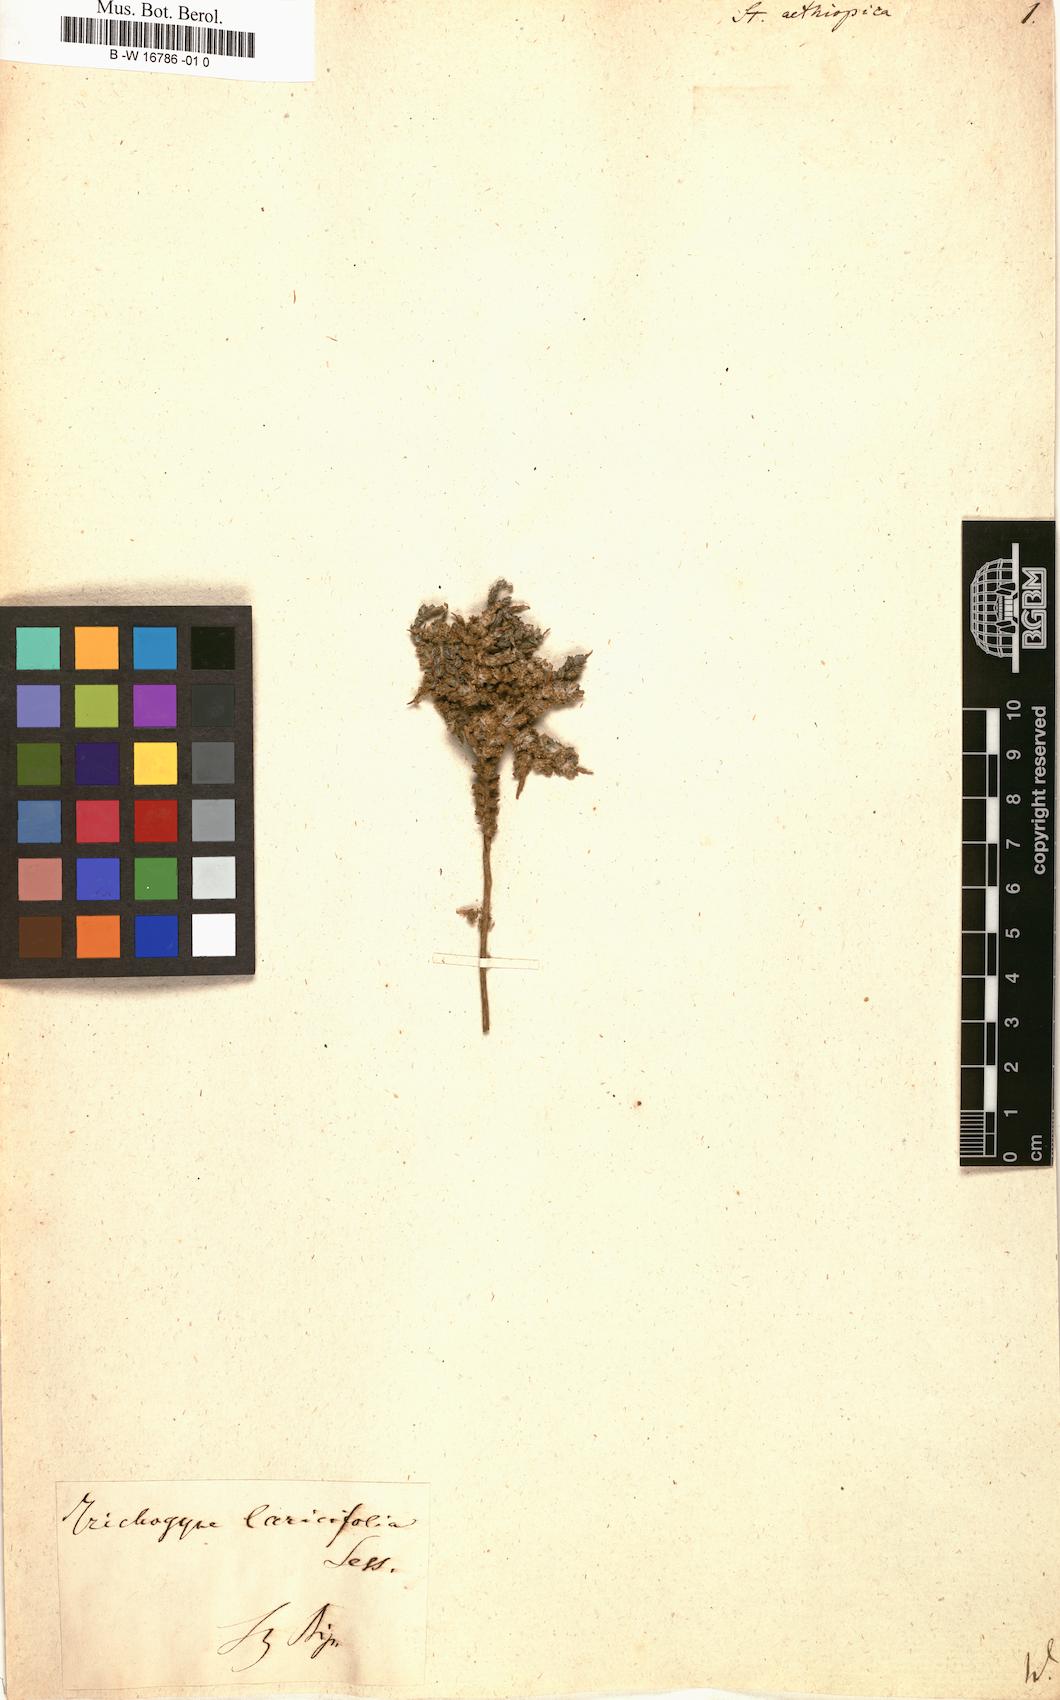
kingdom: Plantae
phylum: Tracheophyta
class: Magnoliopsida
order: Asterales
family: Asteraceae
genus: Stoebe
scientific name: Stoebe aethiopica
